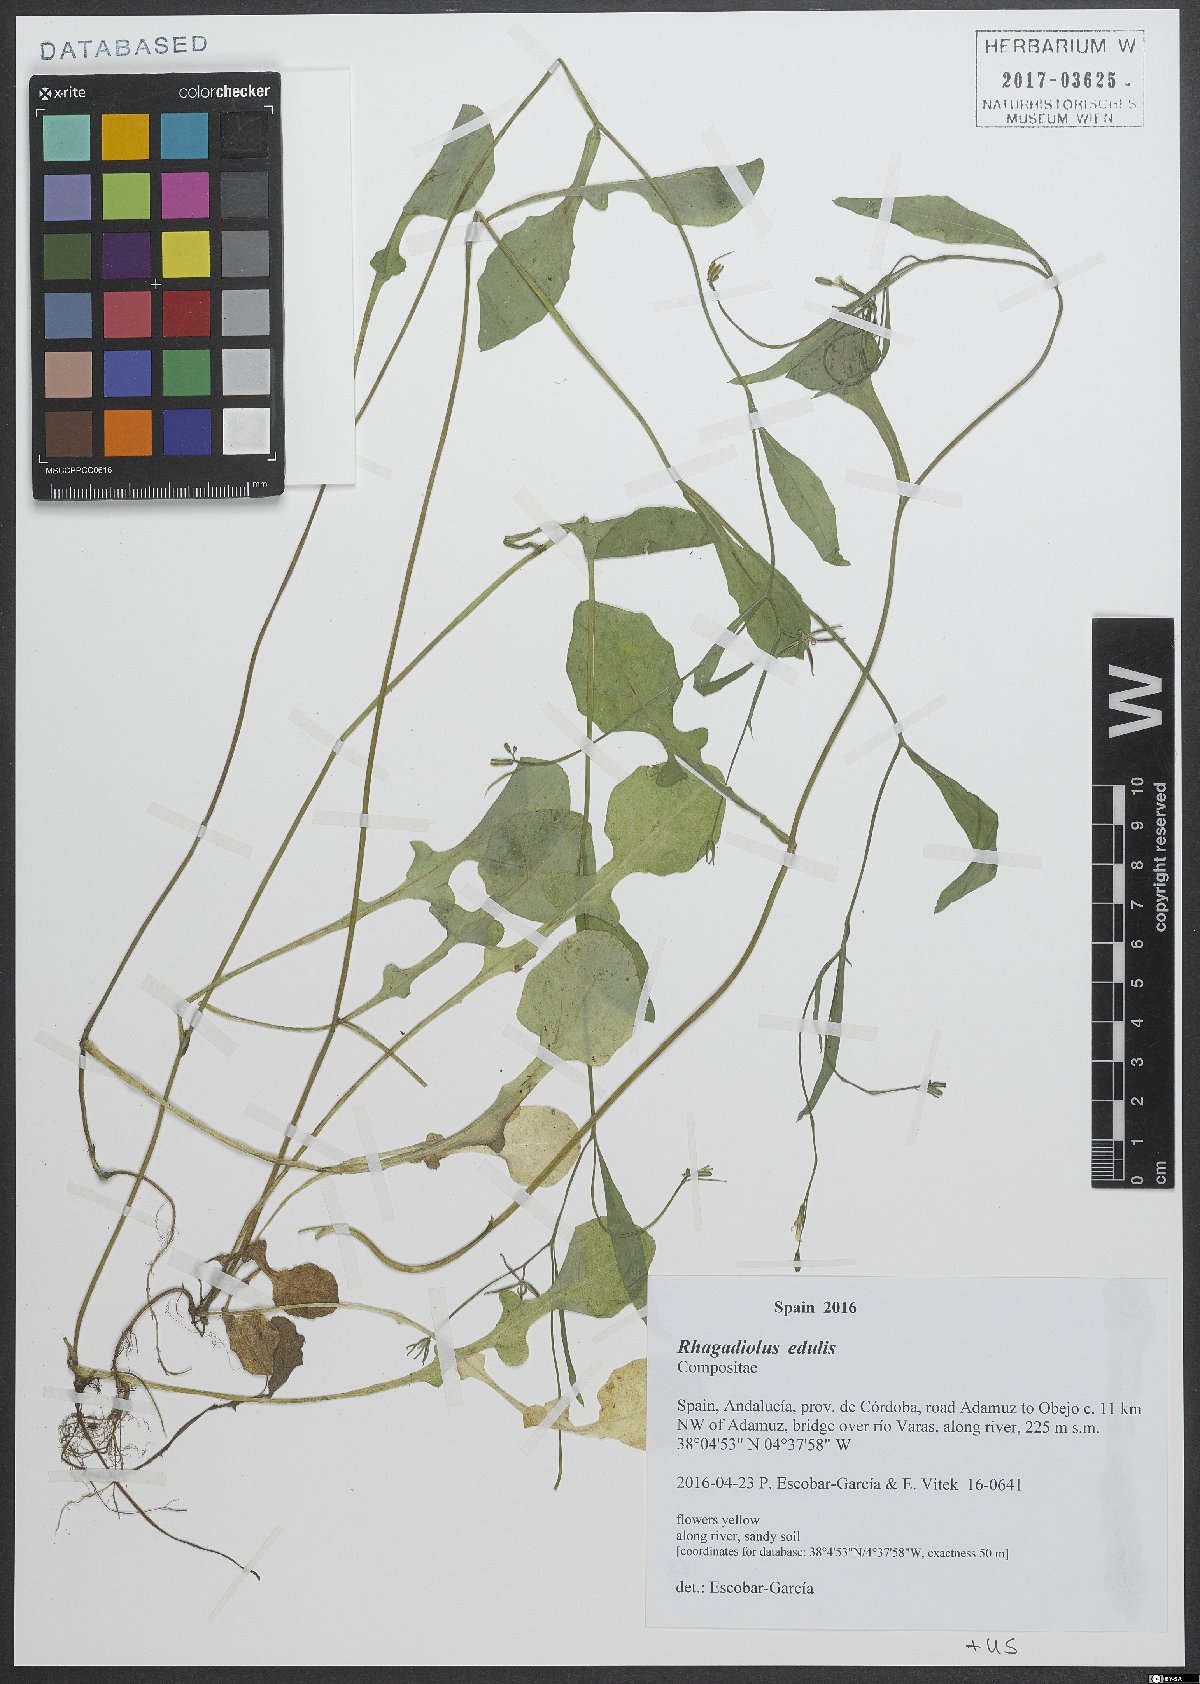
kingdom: Plantae
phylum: Tracheophyta
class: Magnoliopsida
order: Asterales
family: Asteraceae
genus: Rhagadiolus
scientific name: Rhagadiolus edulis
